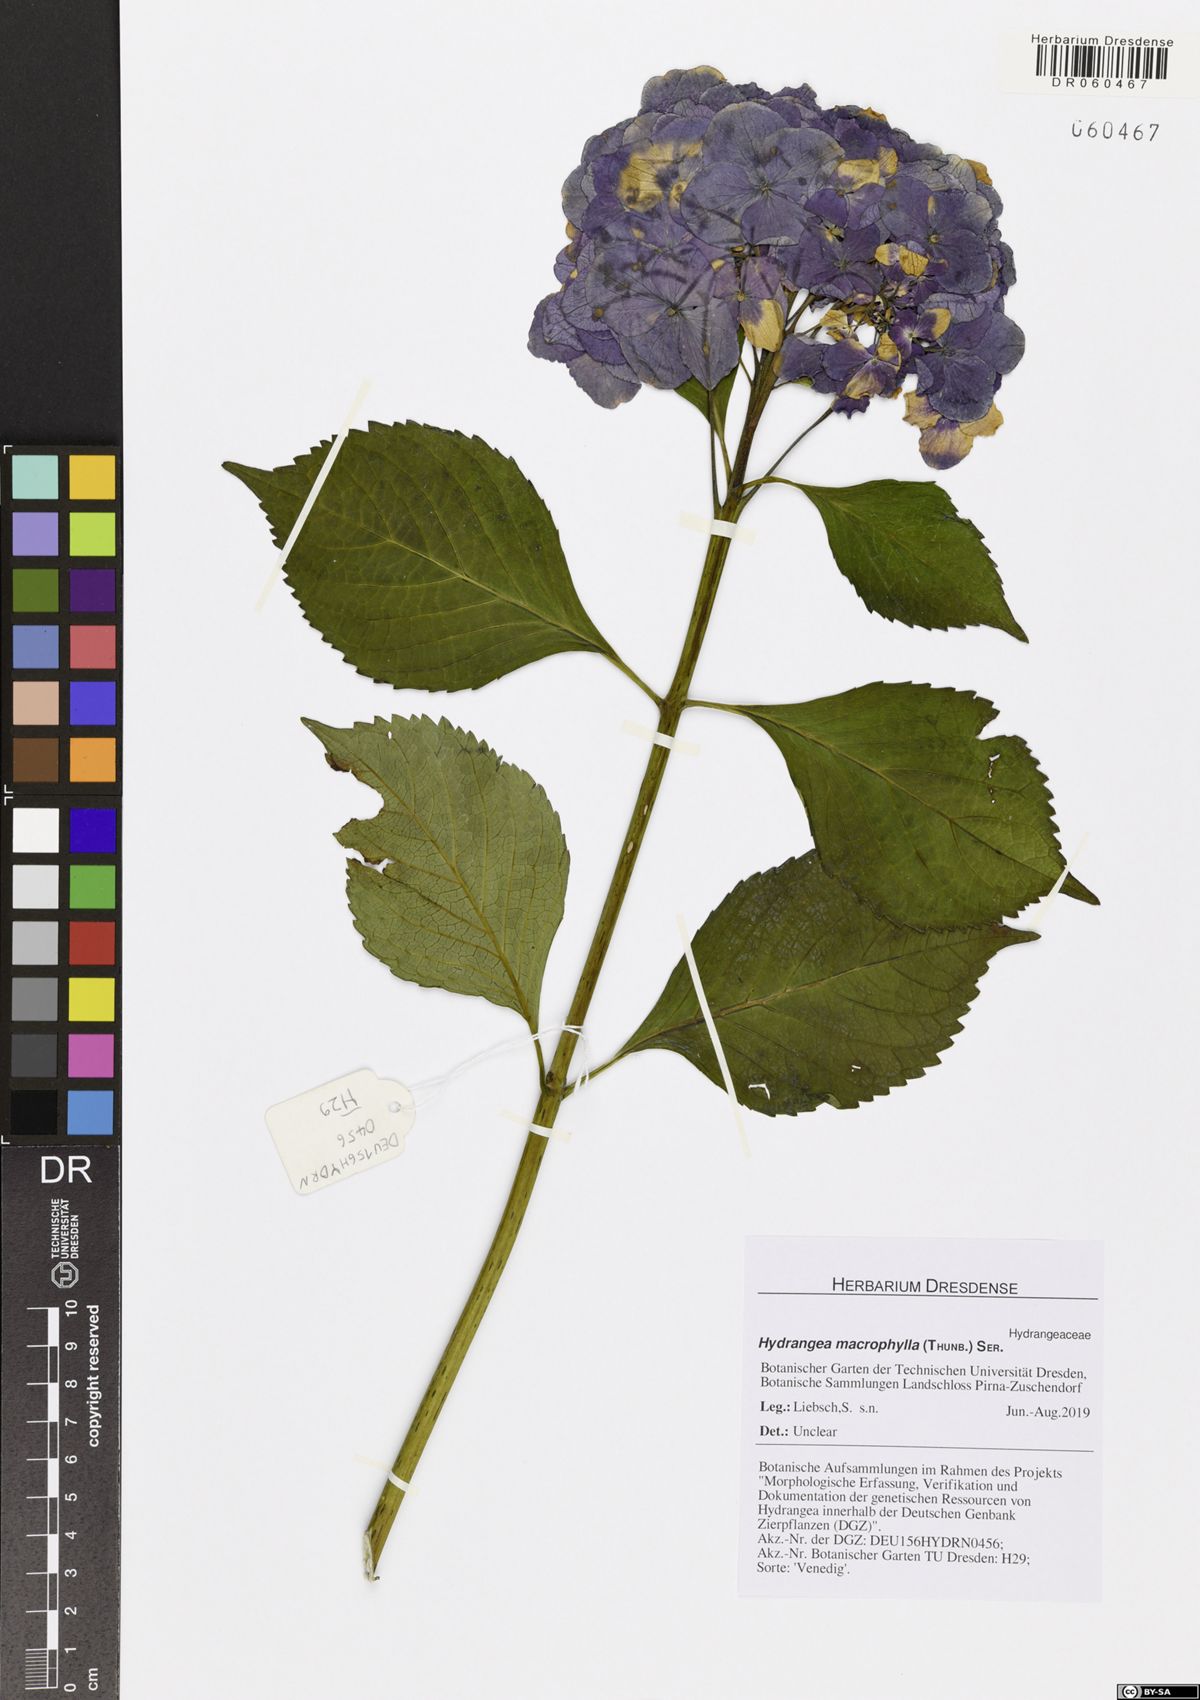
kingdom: Plantae
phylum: Tracheophyta
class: Magnoliopsida
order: Cornales
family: Hydrangeaceae
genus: Hydrangea
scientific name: Hydrangea macrophylla
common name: Hydrangea
